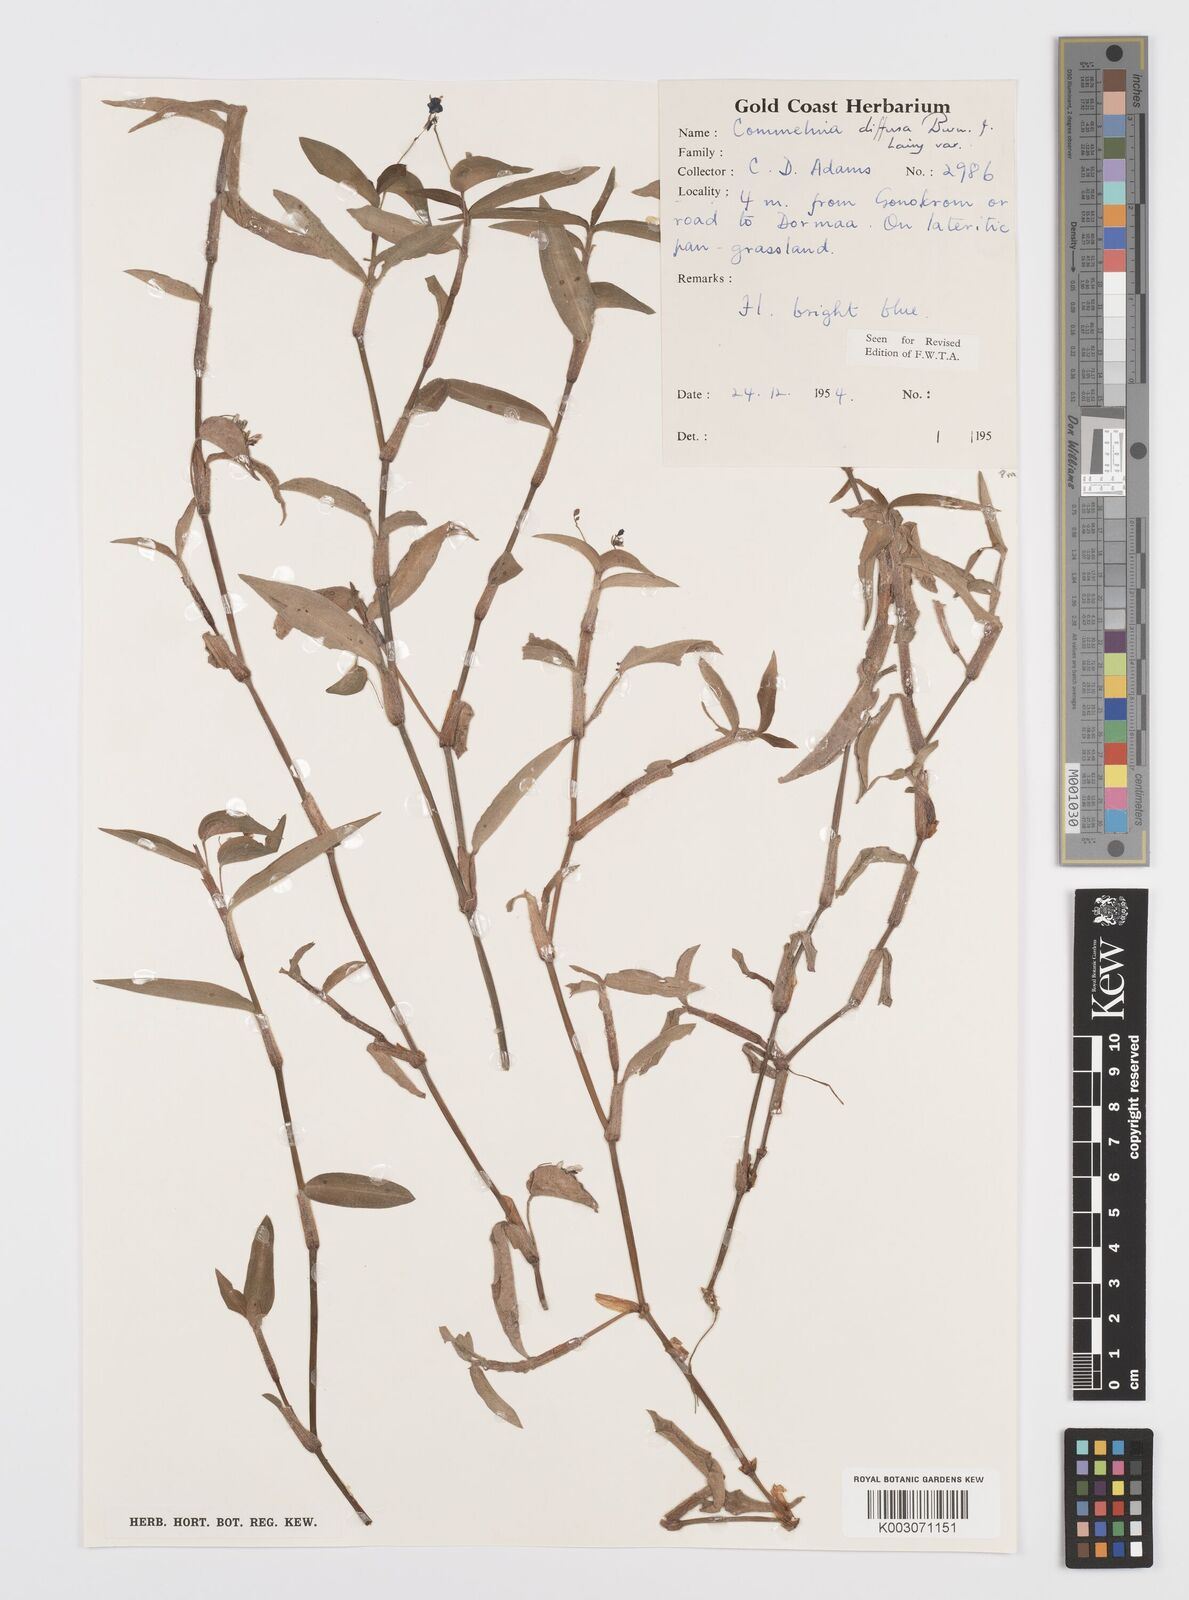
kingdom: Plantae
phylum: Tracheophyta
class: Liliopsida
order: Commelinales
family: Commelinaceae
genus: Commelina
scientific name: Commelina diffusa
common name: Climbing dayflower
